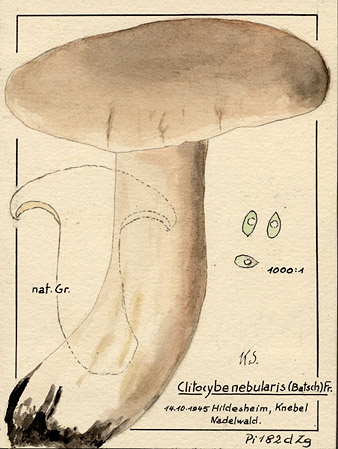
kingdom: Fungi
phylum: Basidiomycota
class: Agaricomycetes
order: Agaricales
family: Tricholomataceae
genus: Clitocybe
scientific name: Clitocybe nebularis
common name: Clouded agaric
